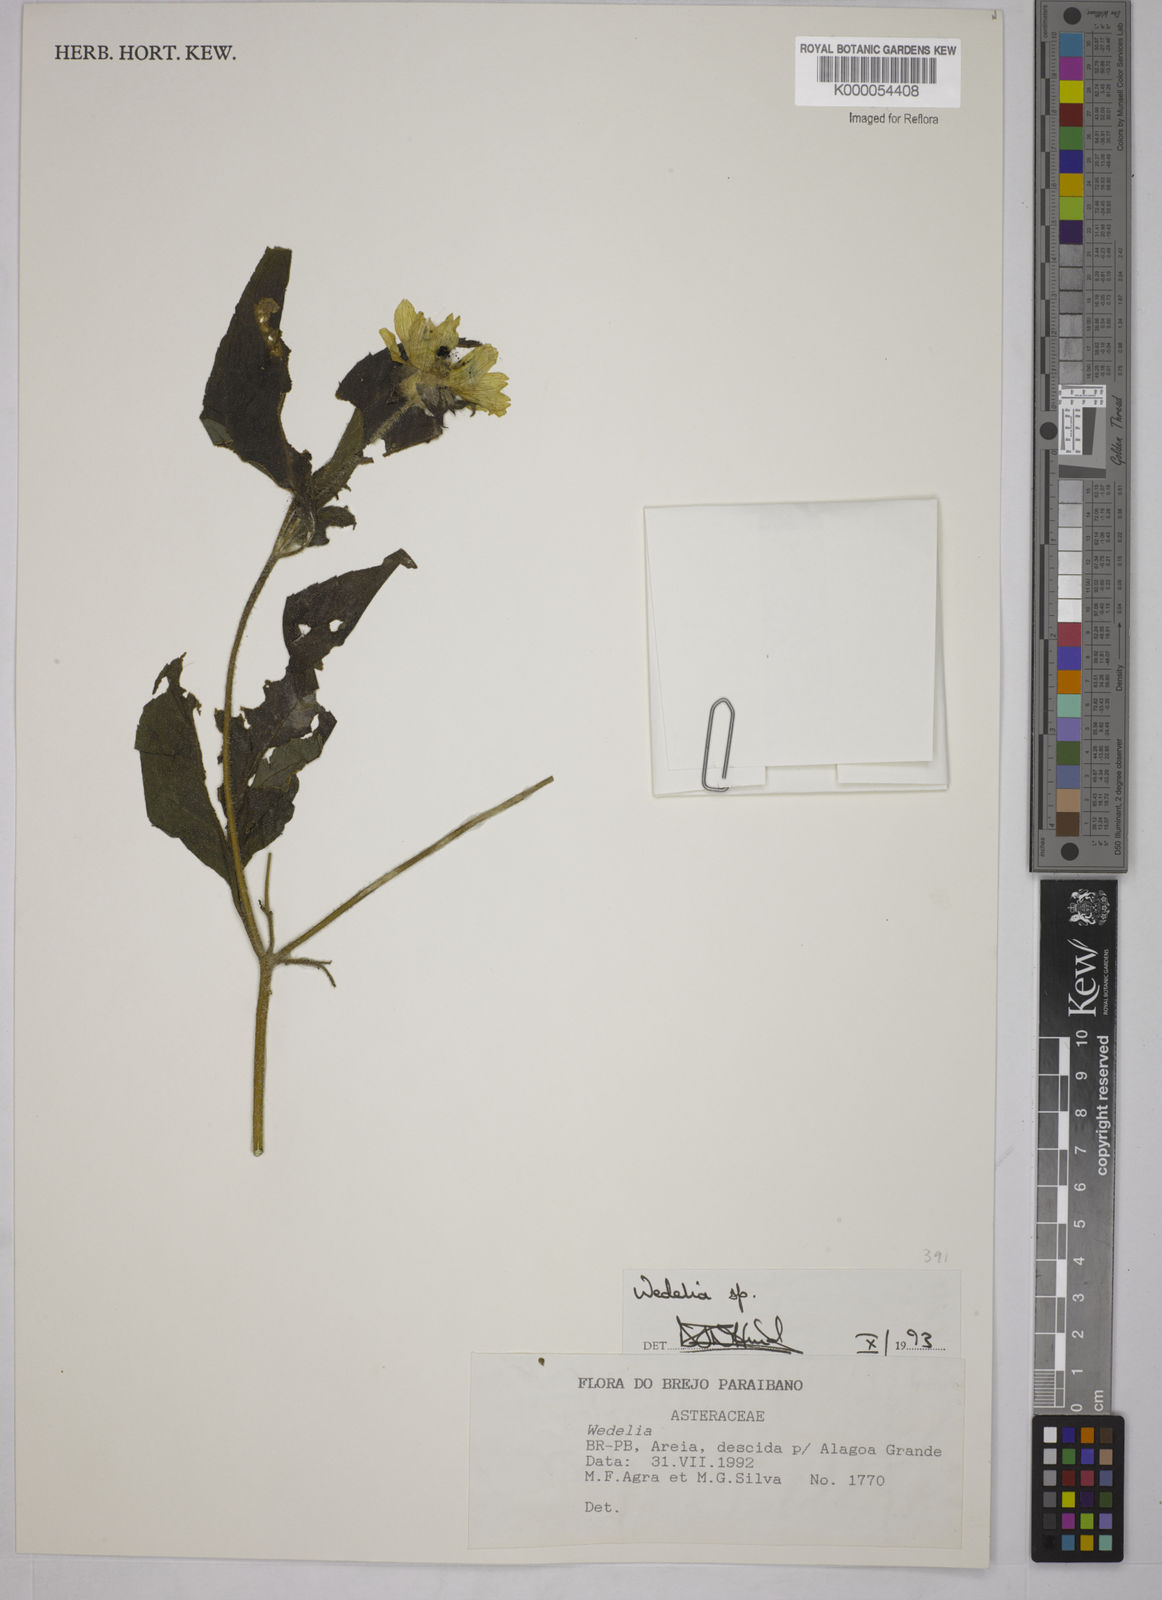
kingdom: Plantae
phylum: Tracheophyta
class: Magnoliopsida
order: Asterales
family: Asteraceae
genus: Wedelia
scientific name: Wedelia
